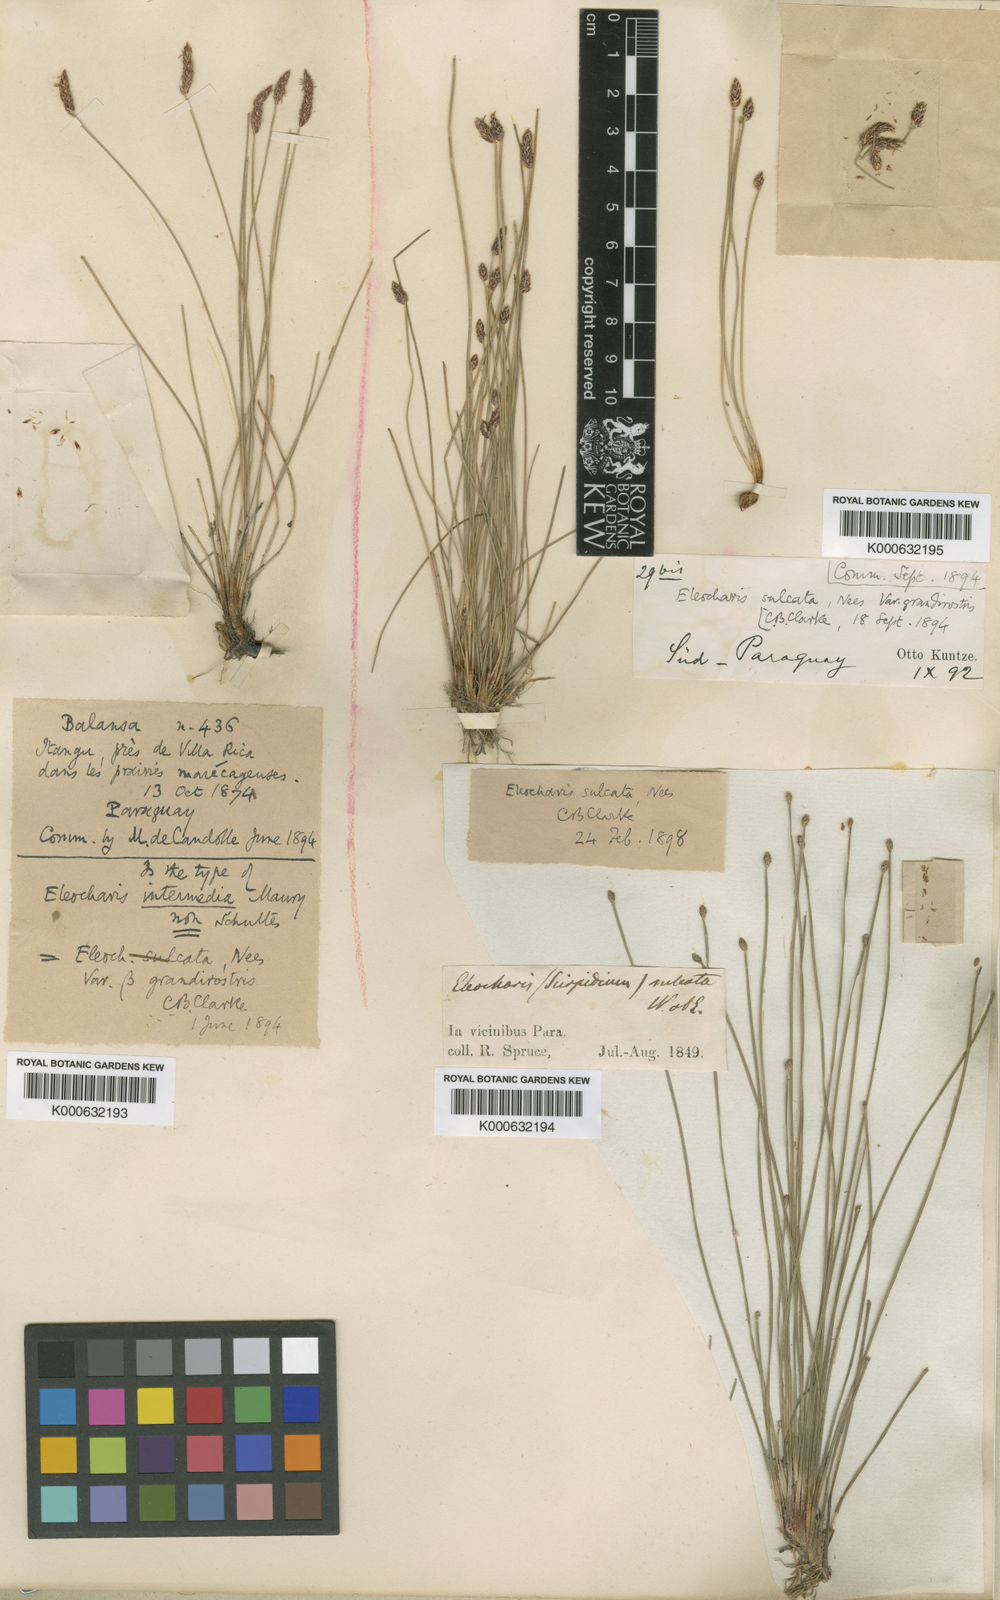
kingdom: Plantae
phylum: Tracheophyta
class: Liliopsida
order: Poales
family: Cyperaceae
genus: Eleocharis
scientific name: Eleocharis filiculmis
